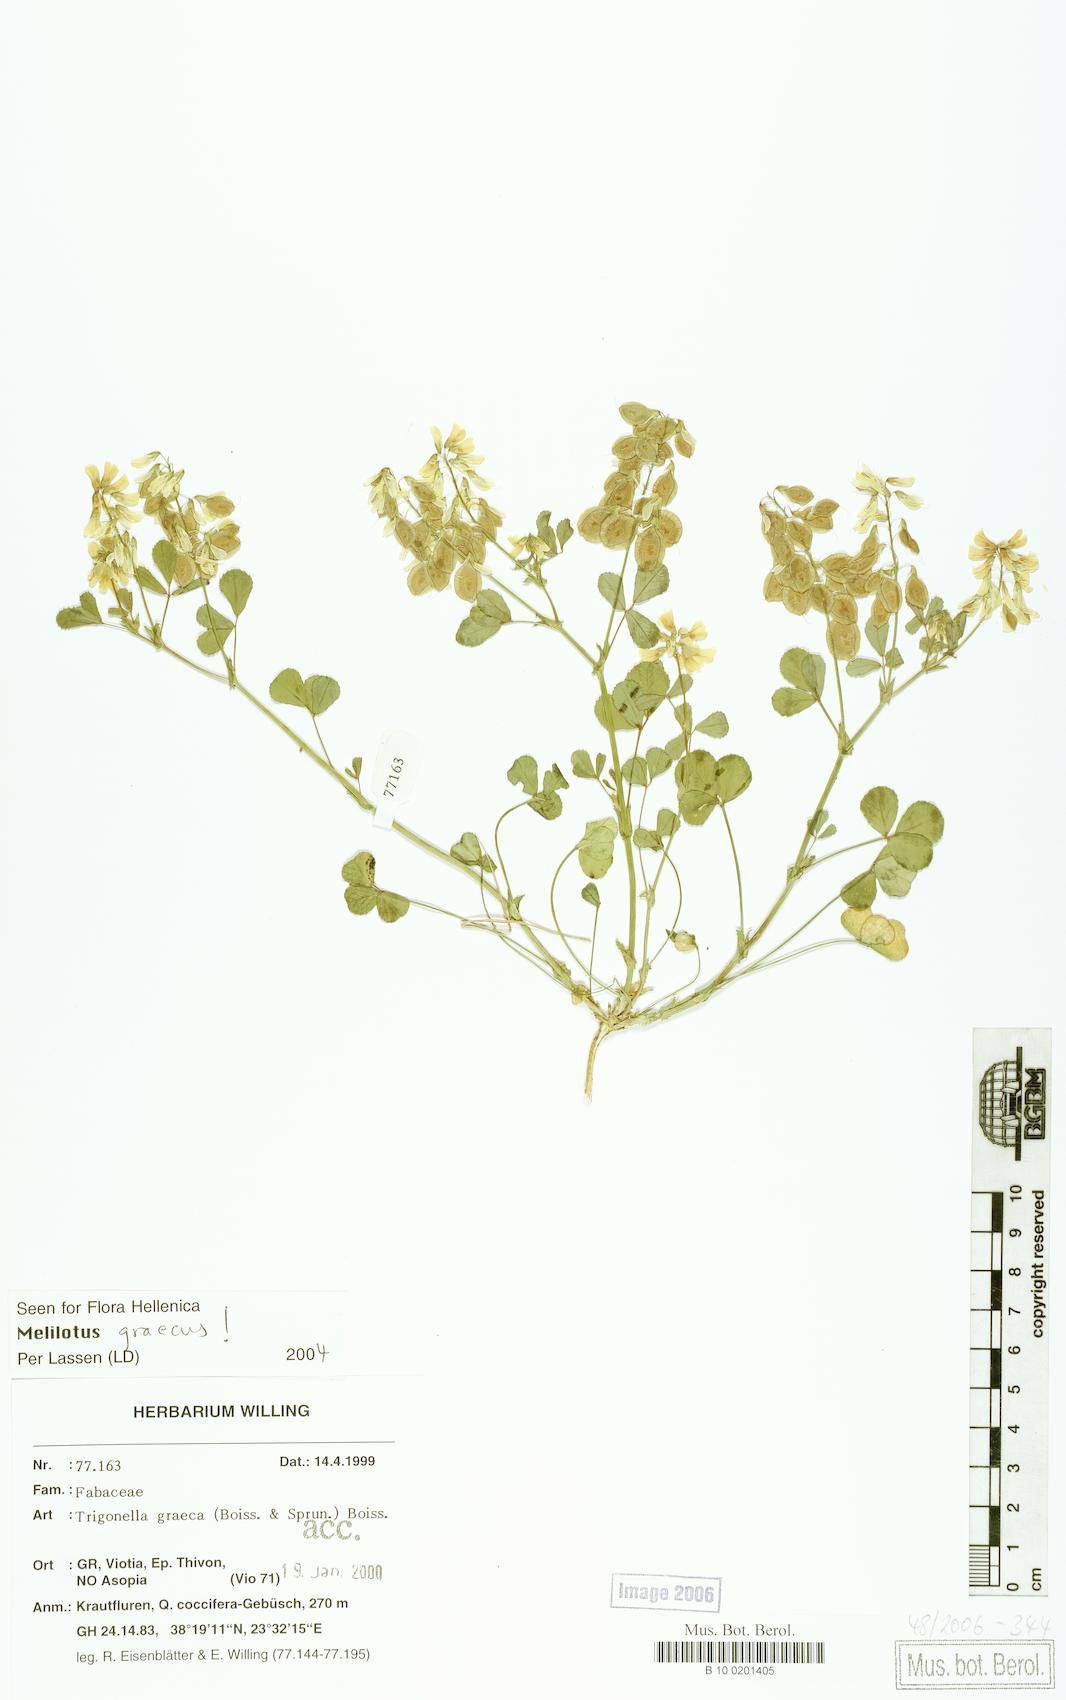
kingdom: Plantae
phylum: Tracheophyta
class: Magnoliopsida
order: Fabales
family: Fabaceae
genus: Trigonella
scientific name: Trigonella graeca
